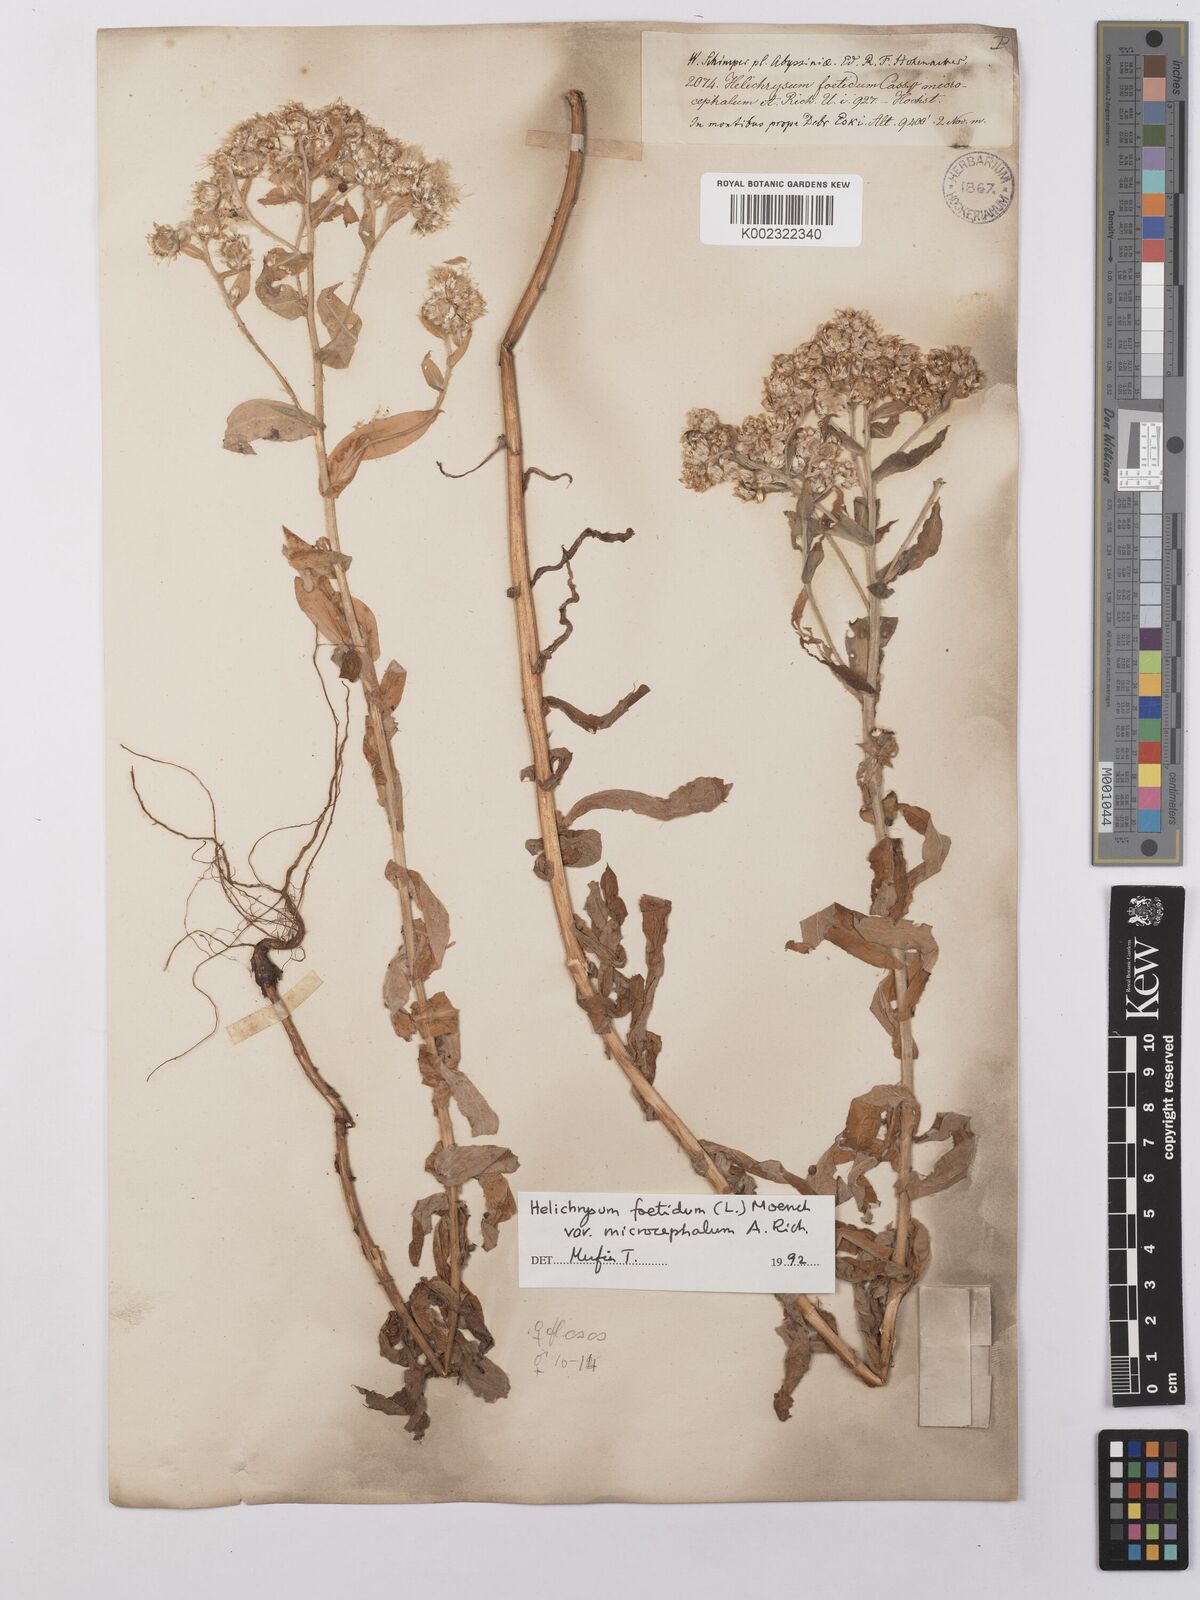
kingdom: Plantae
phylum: Tracheophyta
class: Magnoliopsida
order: Asterales
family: Asteraceae
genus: Helichrysum
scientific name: Helichrysum foetidum
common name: Stinking everlasting
